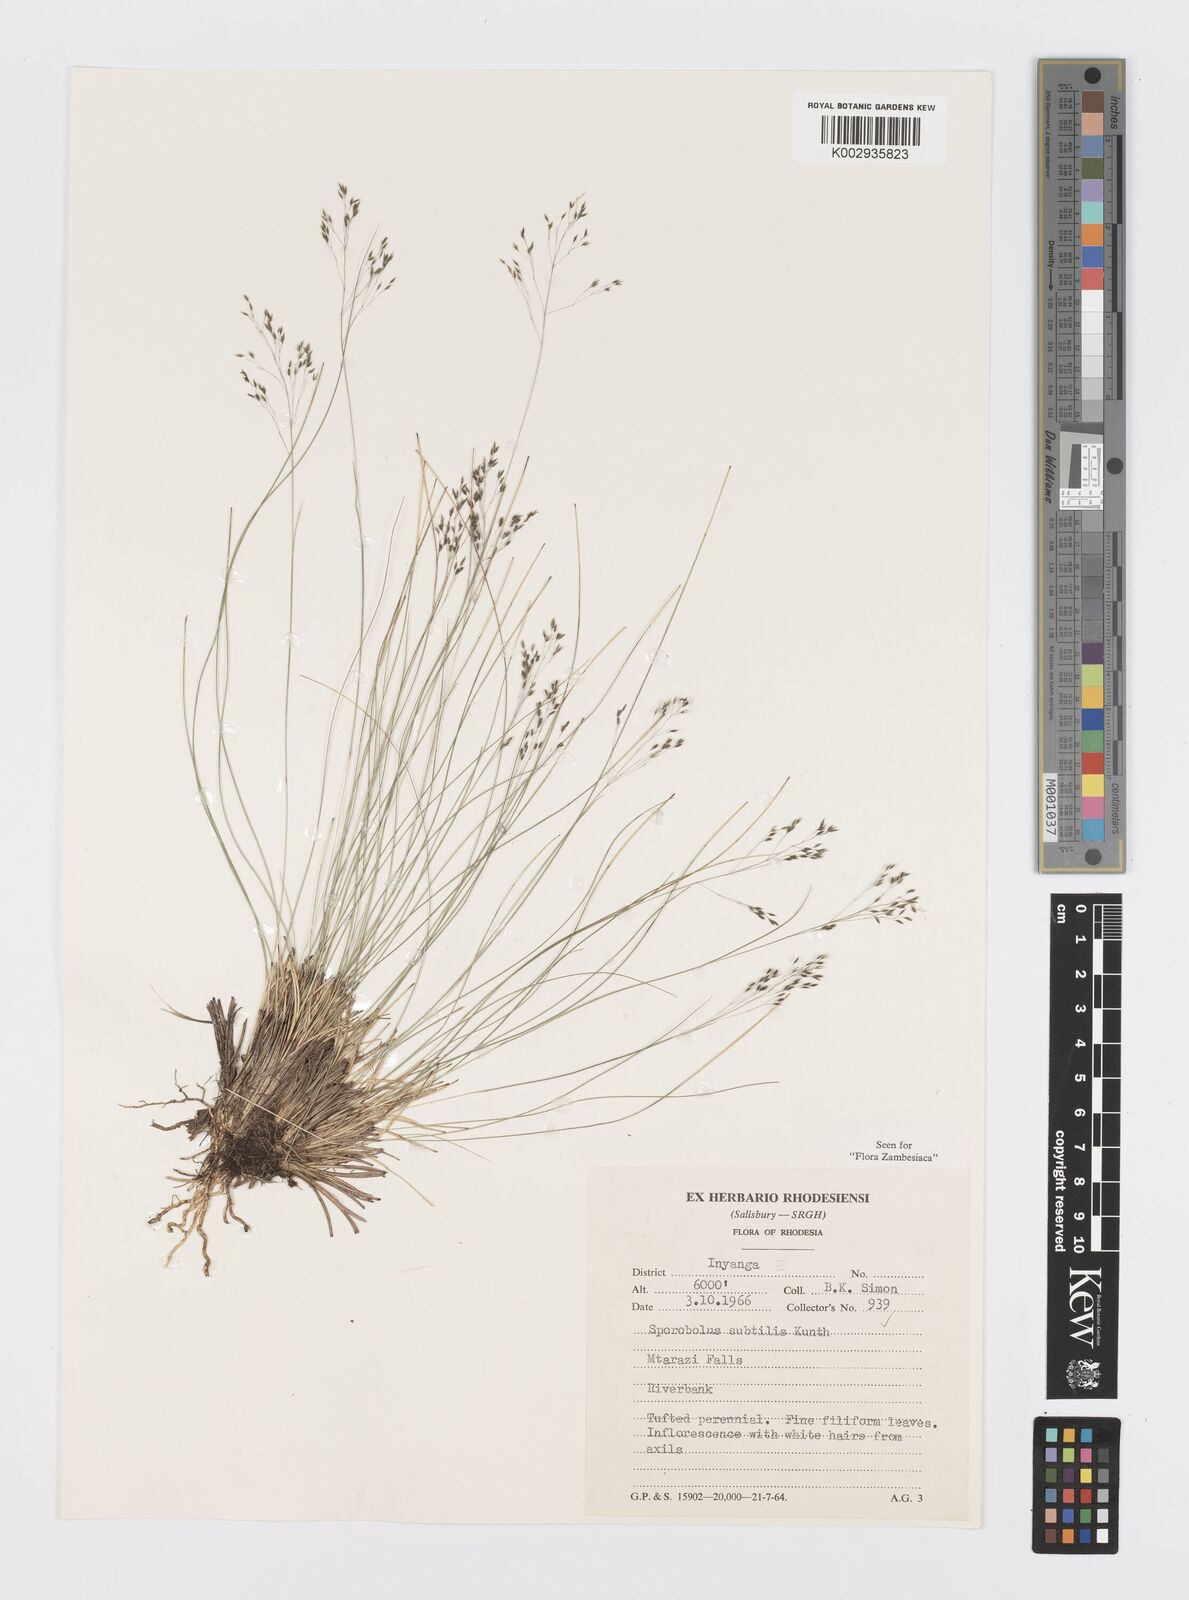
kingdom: Plantae
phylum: Tracheophyta
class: Liliopsida
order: Poales
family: Poaceae
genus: Sporobolus
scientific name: Sporobolus subtilis
